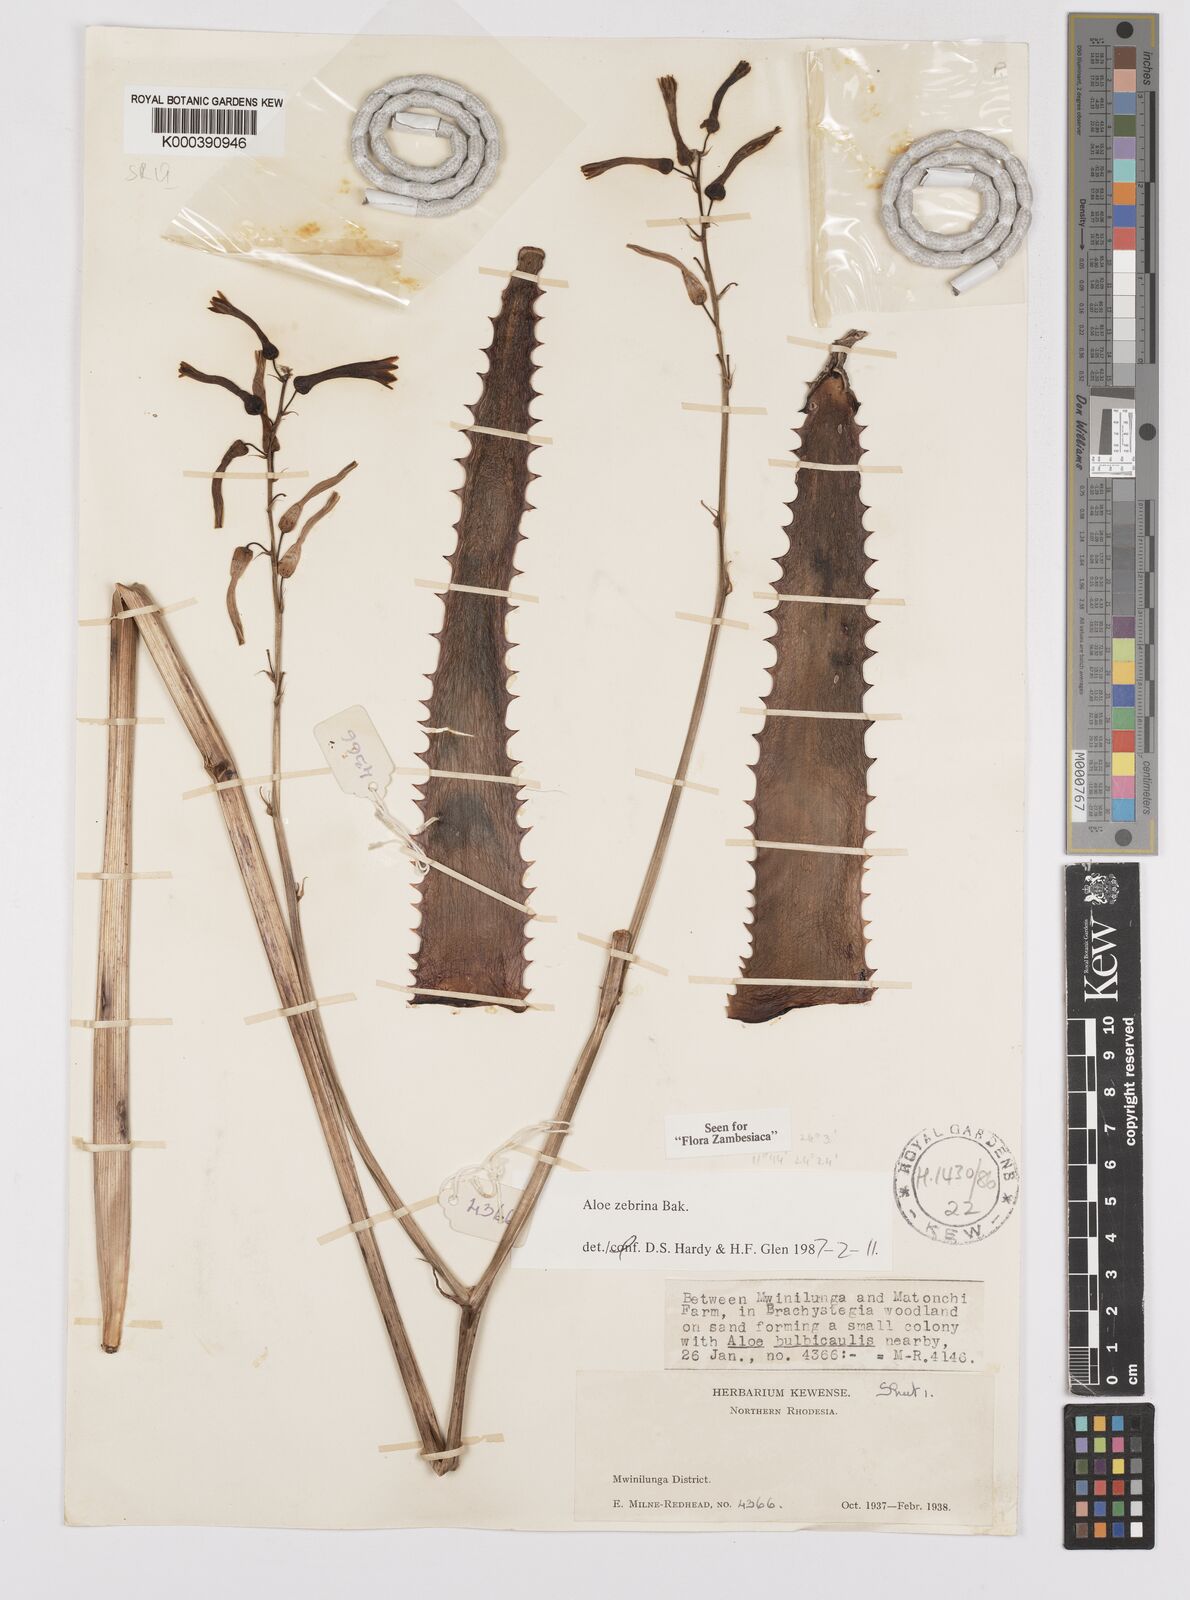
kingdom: Plantae
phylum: Tracheophyta
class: Liliopsida
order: Asparagales
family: Asphodelaceae
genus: Aloe
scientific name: Aloe zebrina
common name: Zebra-leaf aloe
